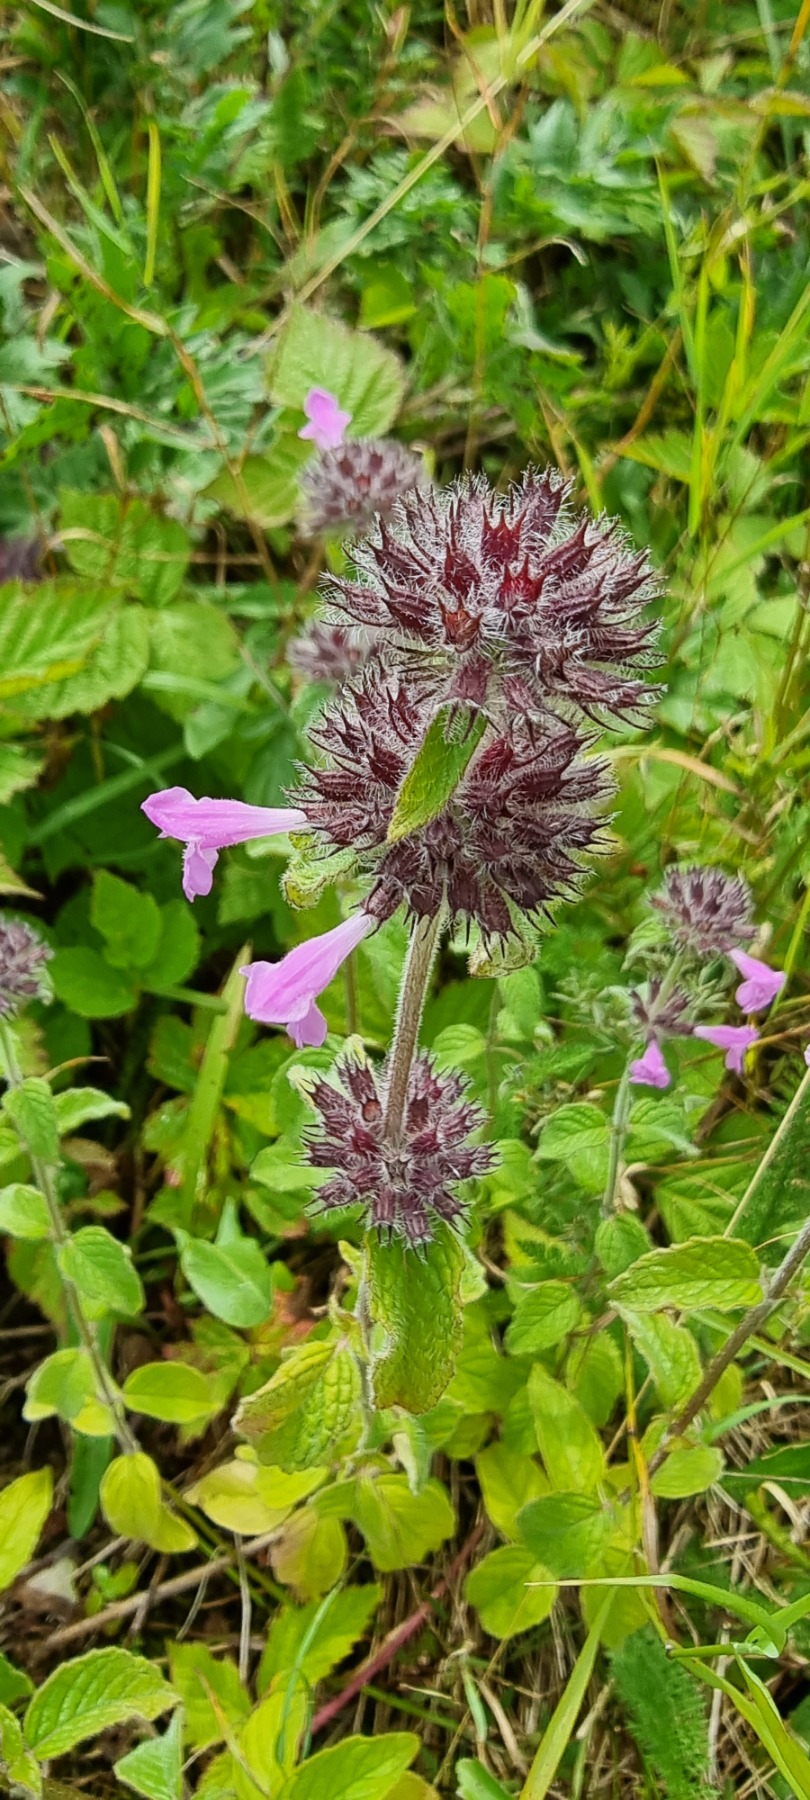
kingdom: Plantae
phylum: Tracheophyta
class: Magnoliopsida
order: Lamiales
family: Lamiaceae
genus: Clinopodium
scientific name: Clinopodium vulgare
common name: Kransbørste
